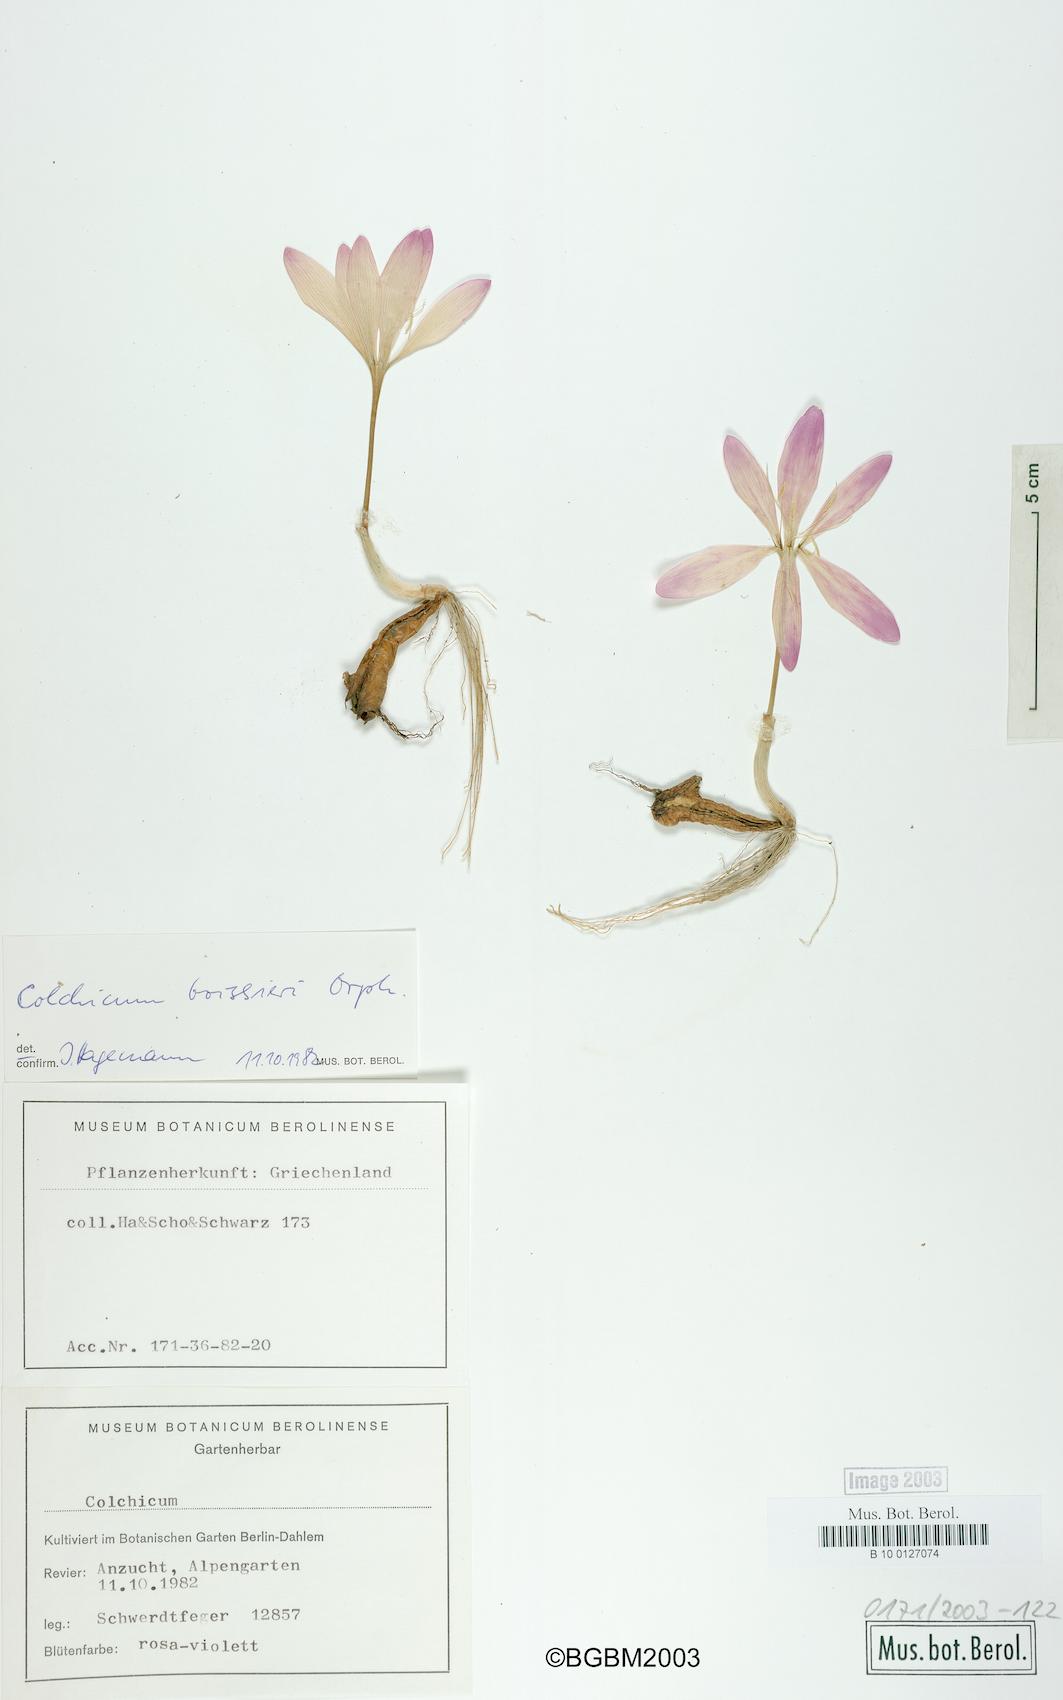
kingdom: Plantae
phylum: Tracheophyta
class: Liliopsida
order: Liliales
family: Colchicaceae
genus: Colchicum
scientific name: Colchicum boissieri
